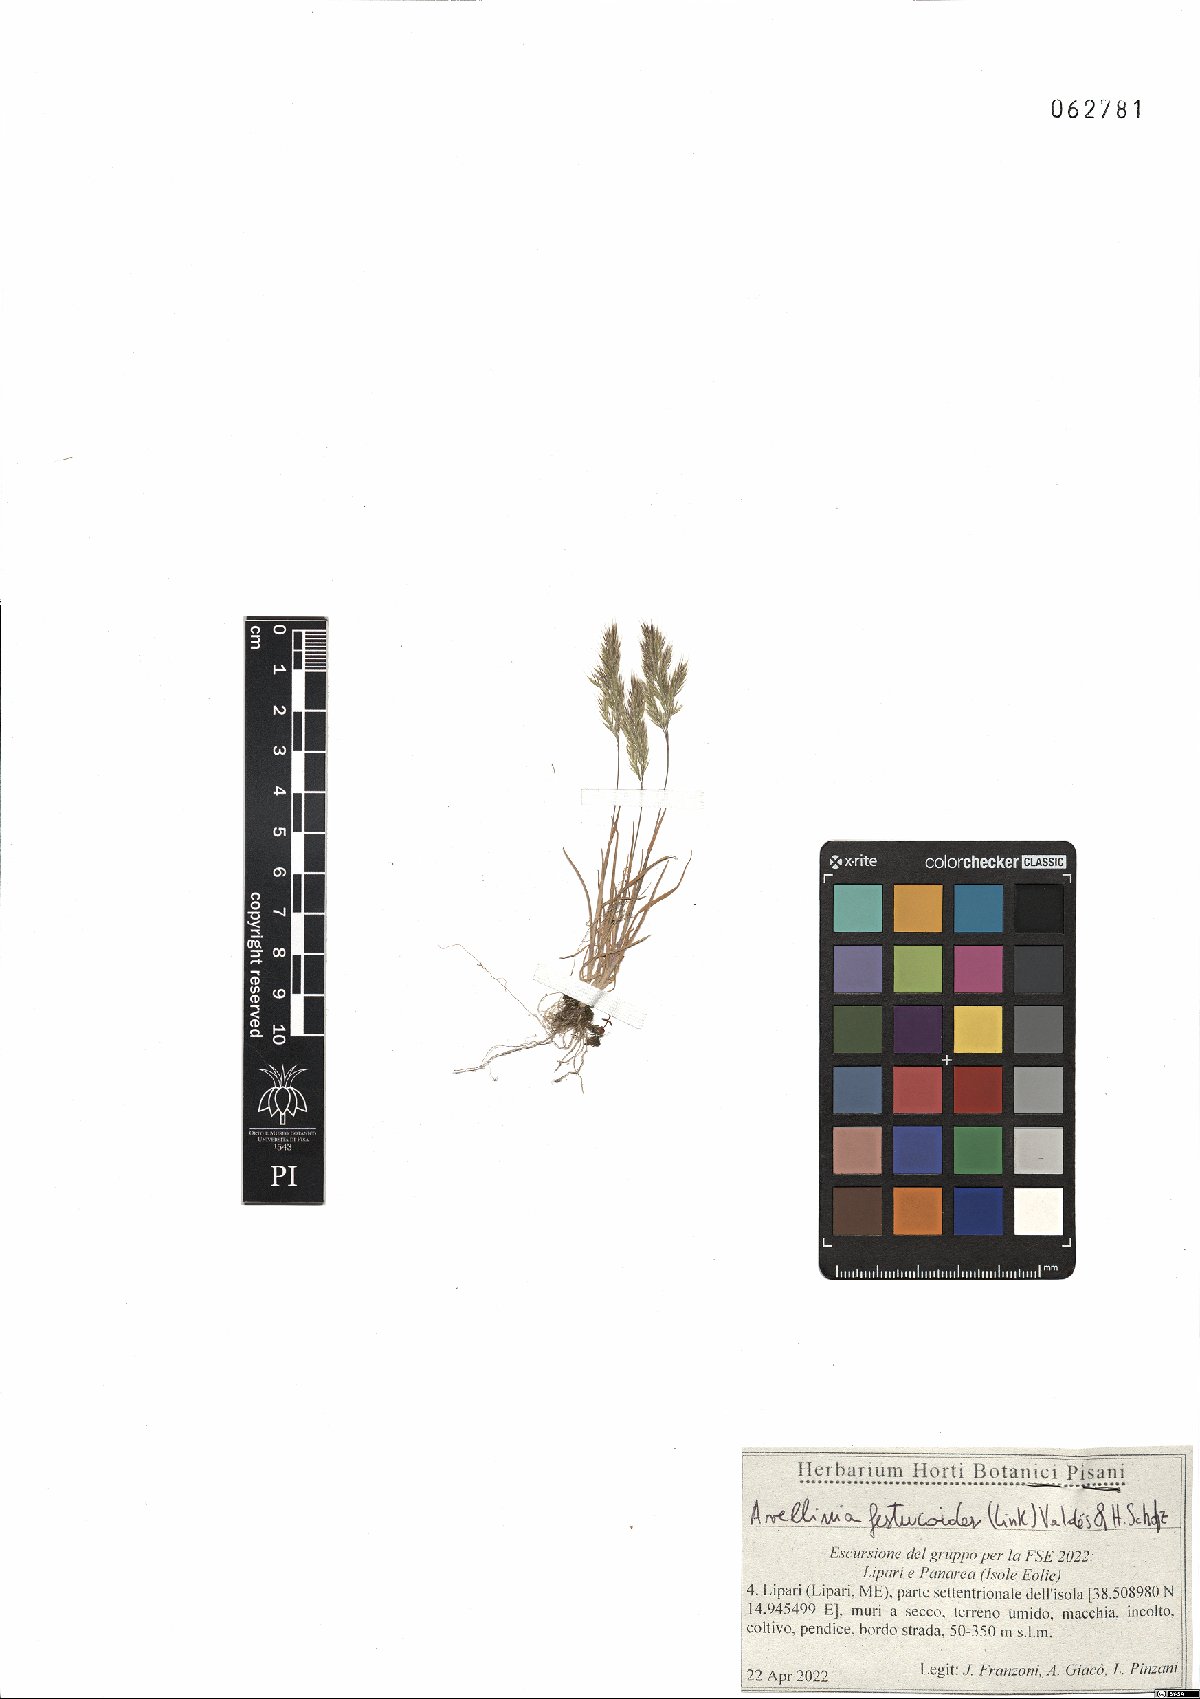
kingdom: Plantae
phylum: Tracheophyta
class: Liliopsida
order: Poales
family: Poaceae
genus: Avellinia
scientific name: Avellinia festucoides
